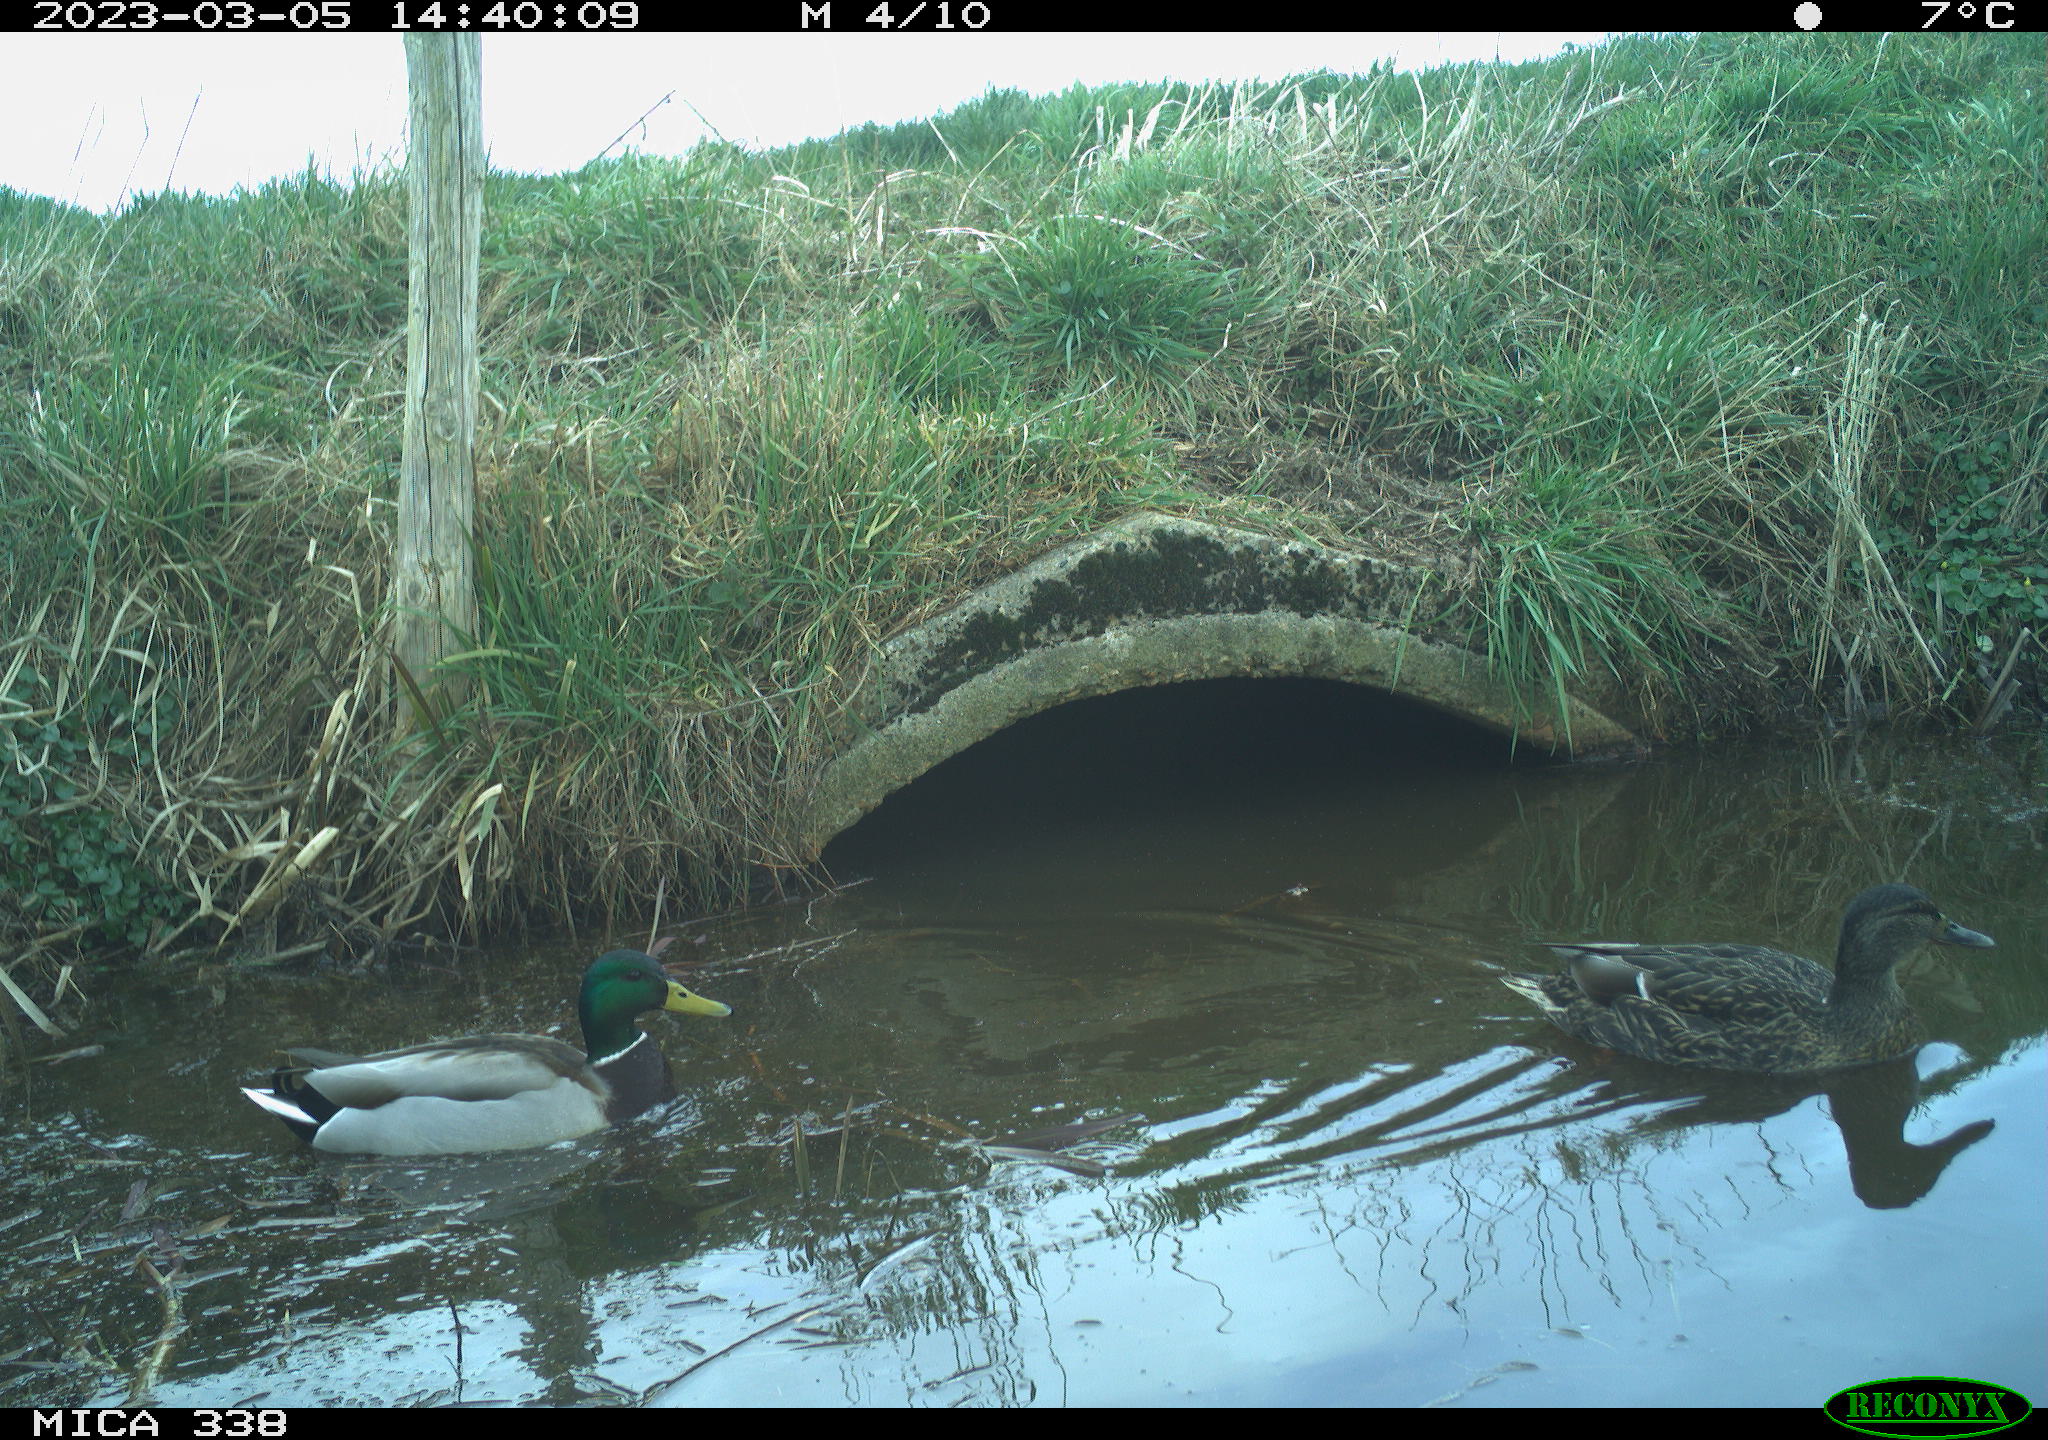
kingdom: Animalia
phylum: Chordata
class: Aves
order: Anseriformes
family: Anatidae
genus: Anas
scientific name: Anas
